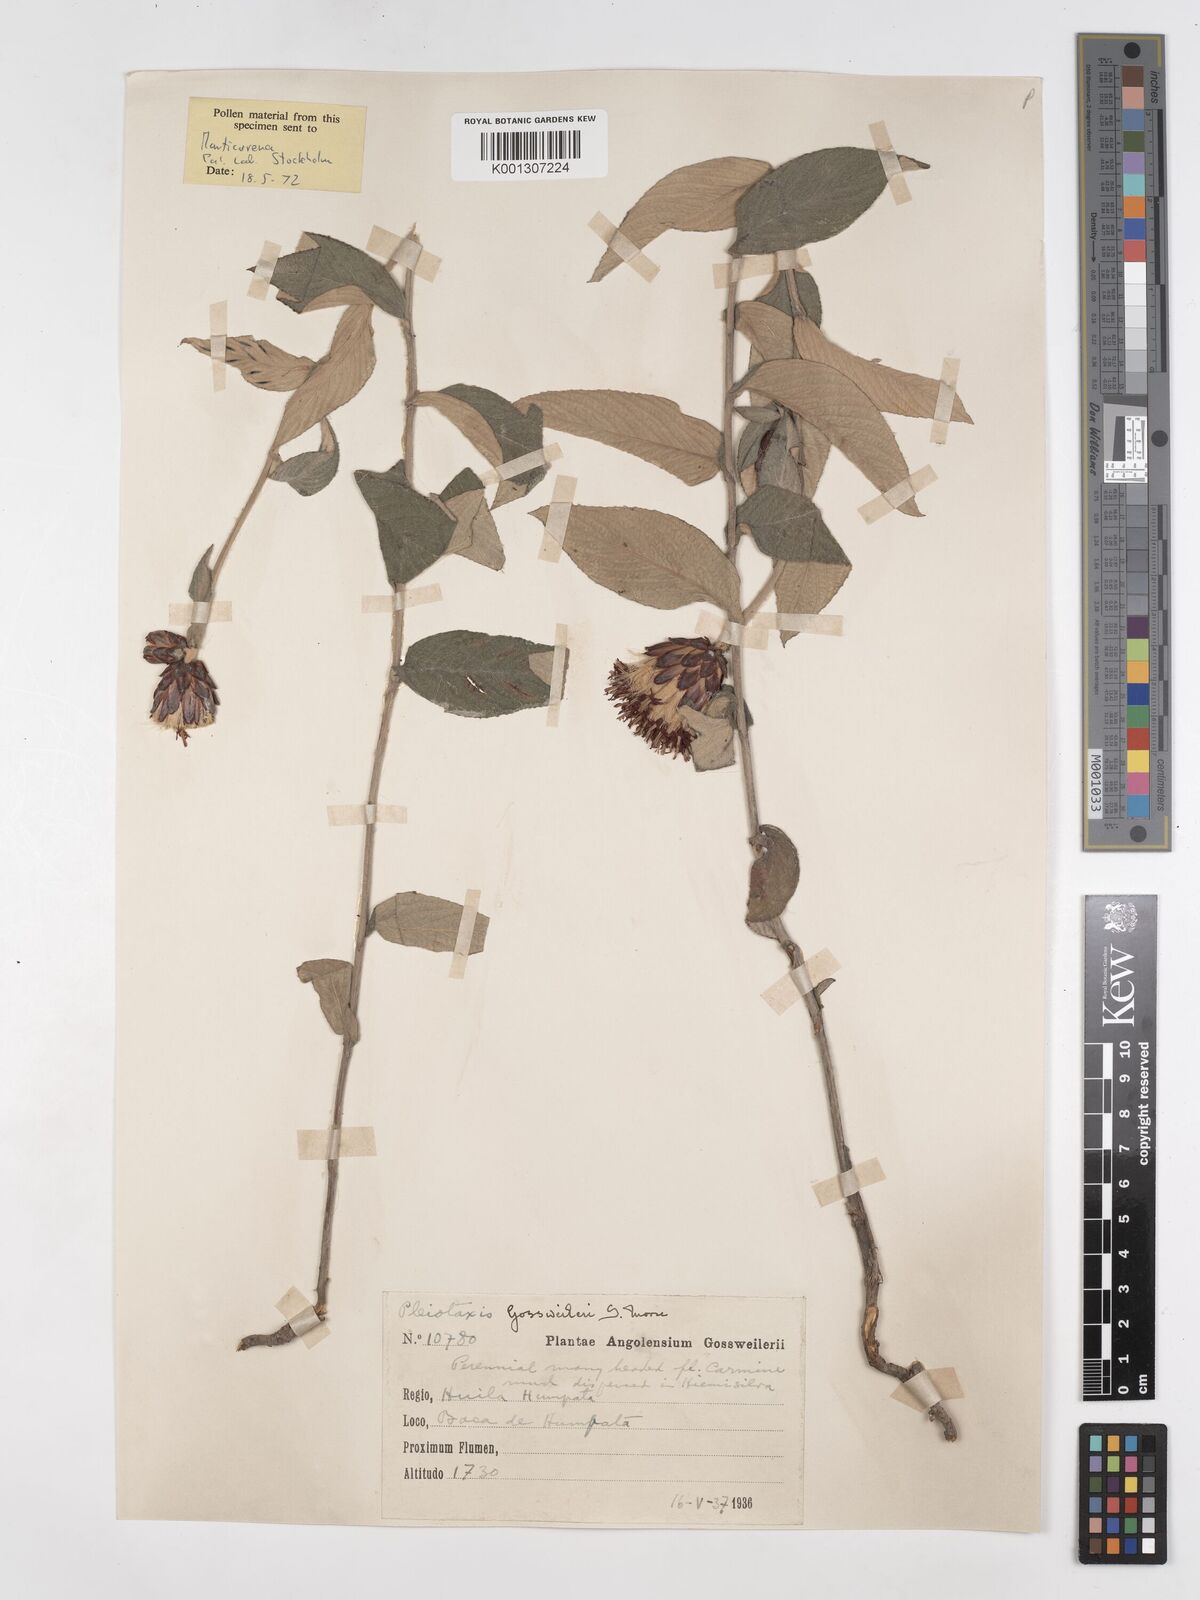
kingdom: Plantae
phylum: Tracheophyta
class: Magnoliopsida
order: Asterales
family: Asteraceae
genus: Pleiotaxis
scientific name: Pleiotaxis huillensis
